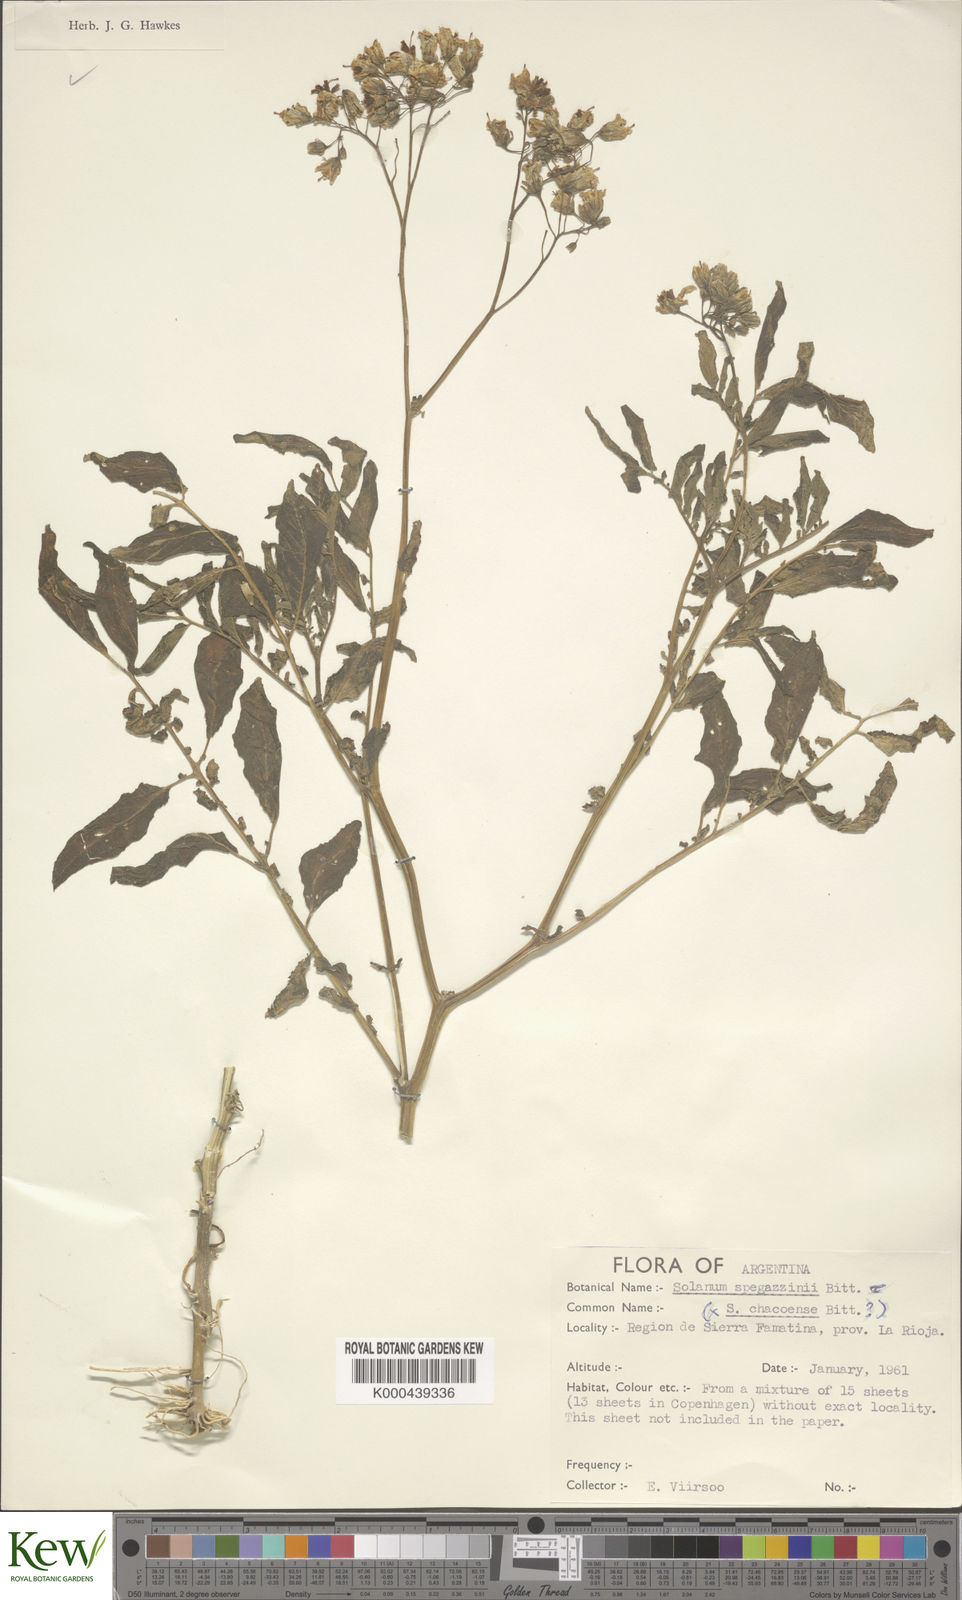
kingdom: Plantae
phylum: Tracheophyta
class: Magnoliopsida
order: Solanales
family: Solanaceae
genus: Solanum
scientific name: Solanum chacoense
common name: Chaco potato
